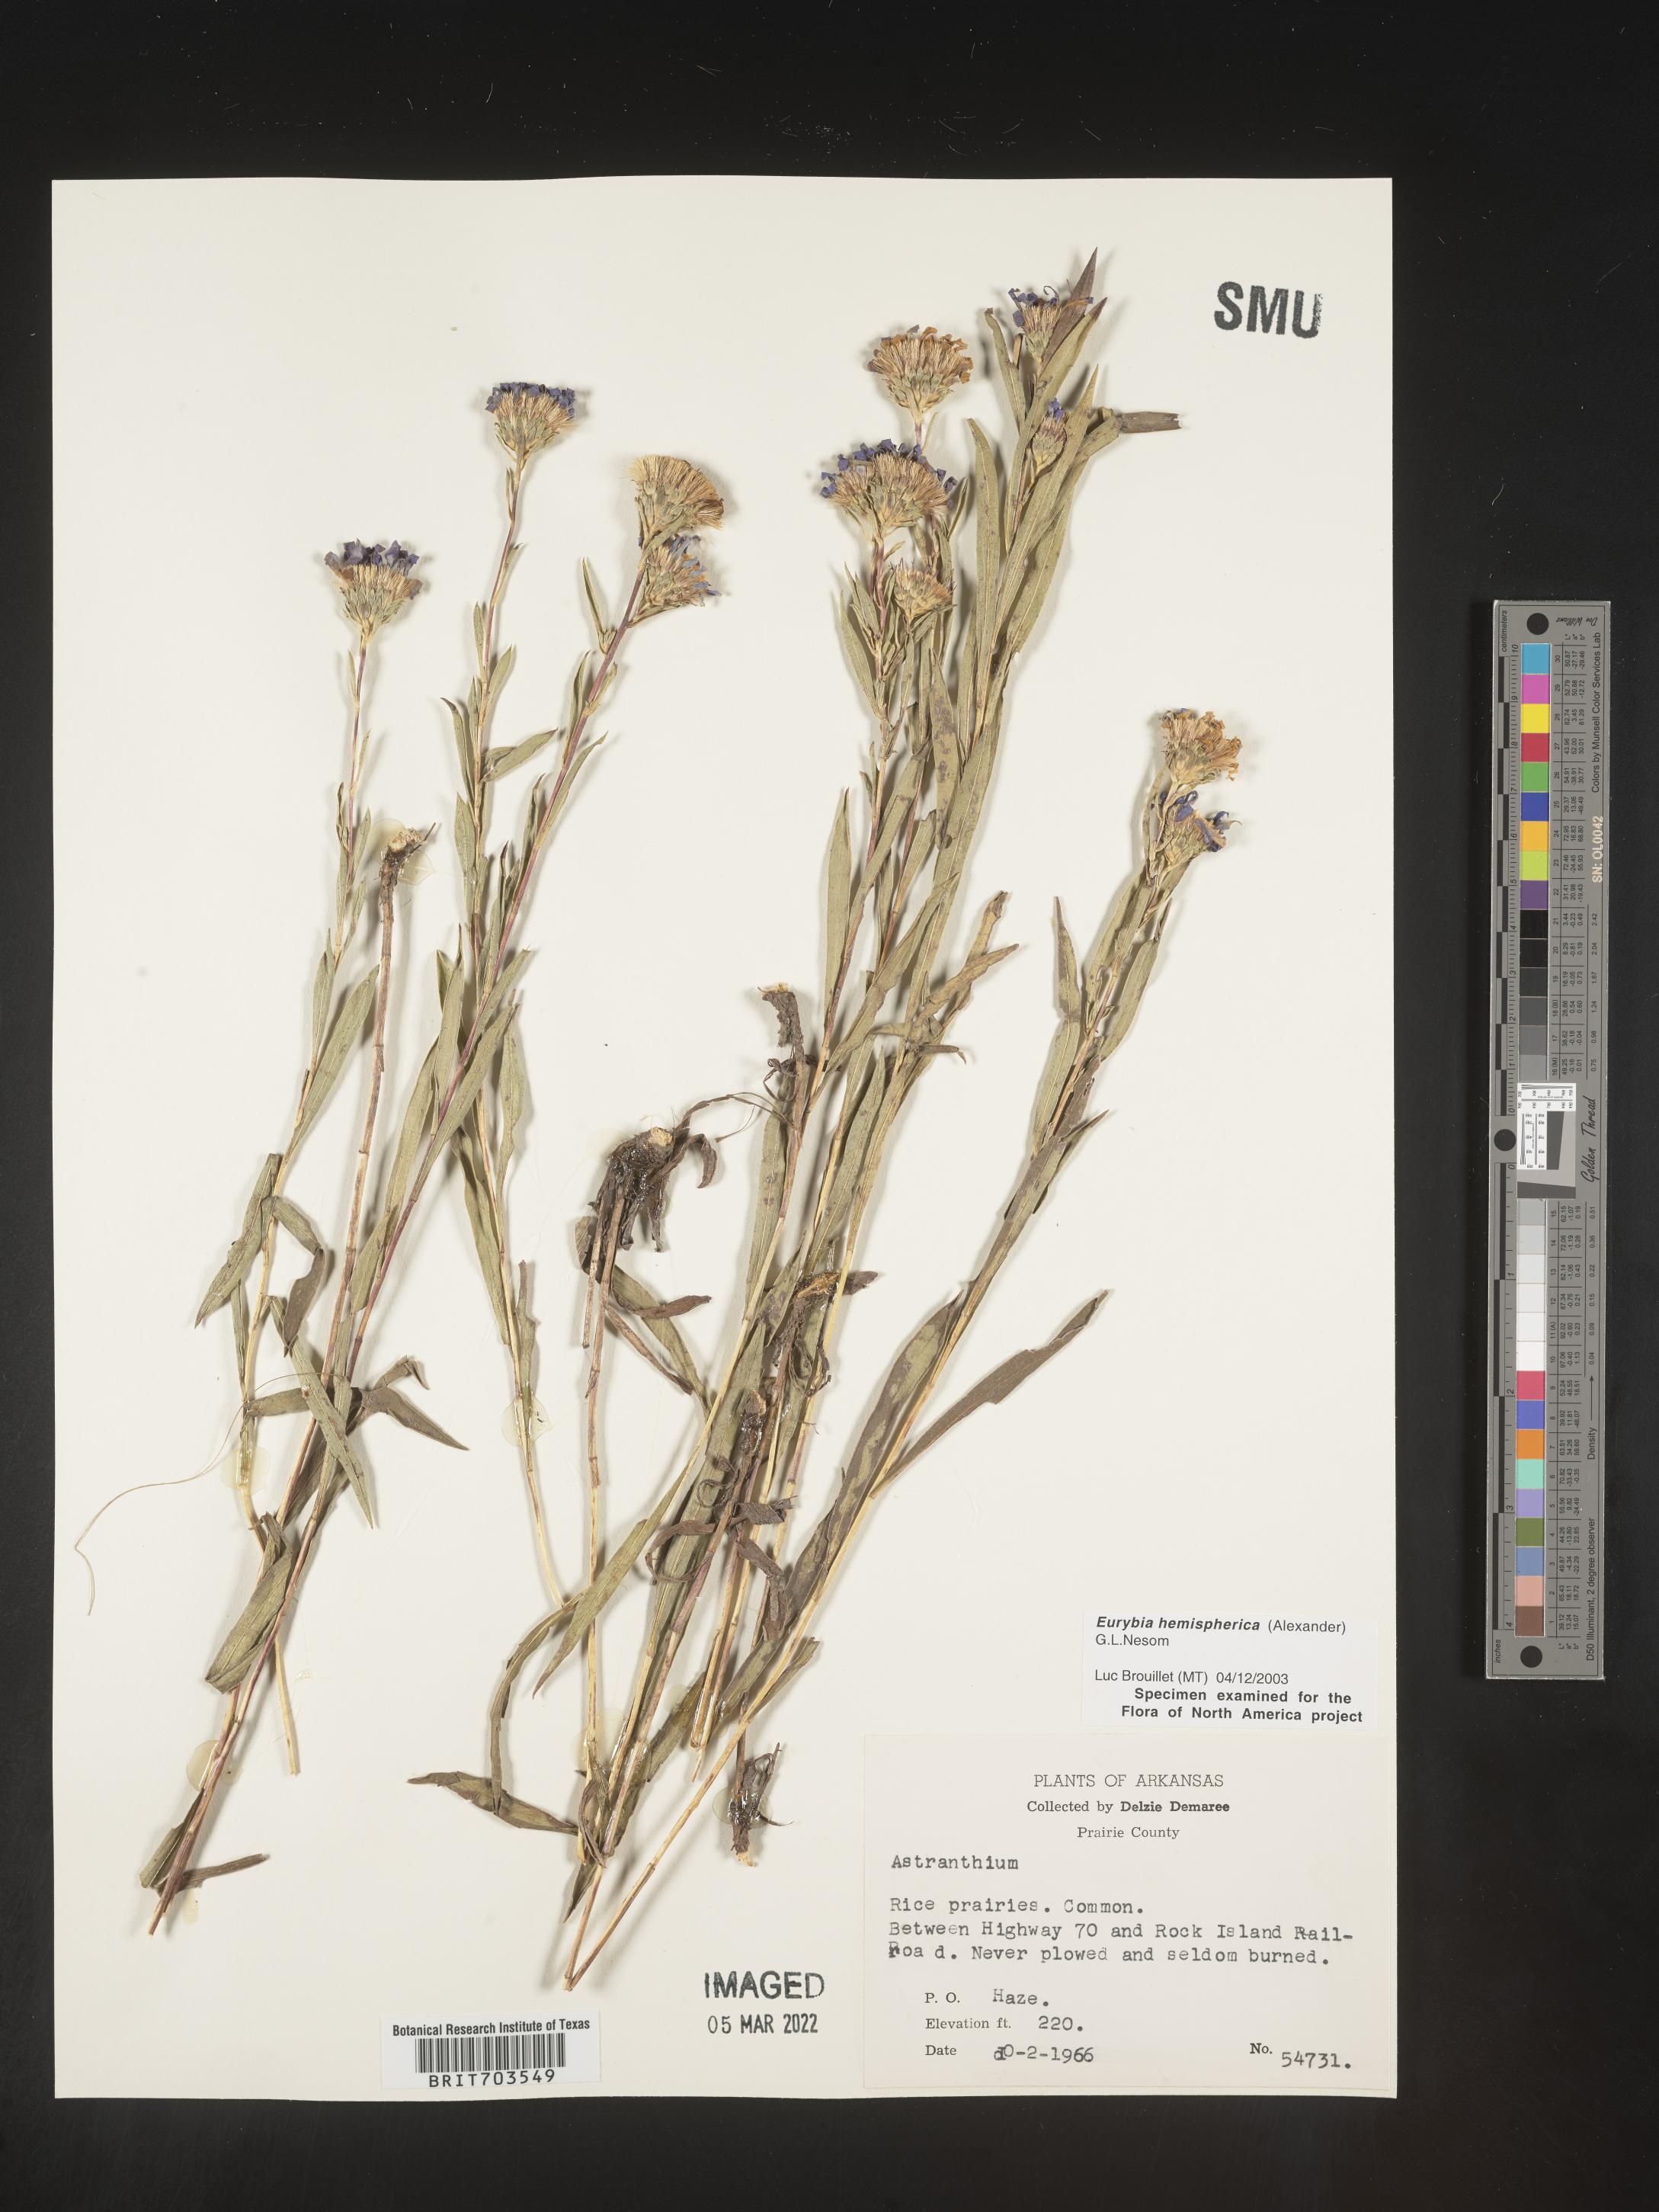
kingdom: Plantae
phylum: Tracheophyta
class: Magnoliopsida
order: Asterales
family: Asteraceae
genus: Eurybia
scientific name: Eurybia hemispherica
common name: Showy aster
